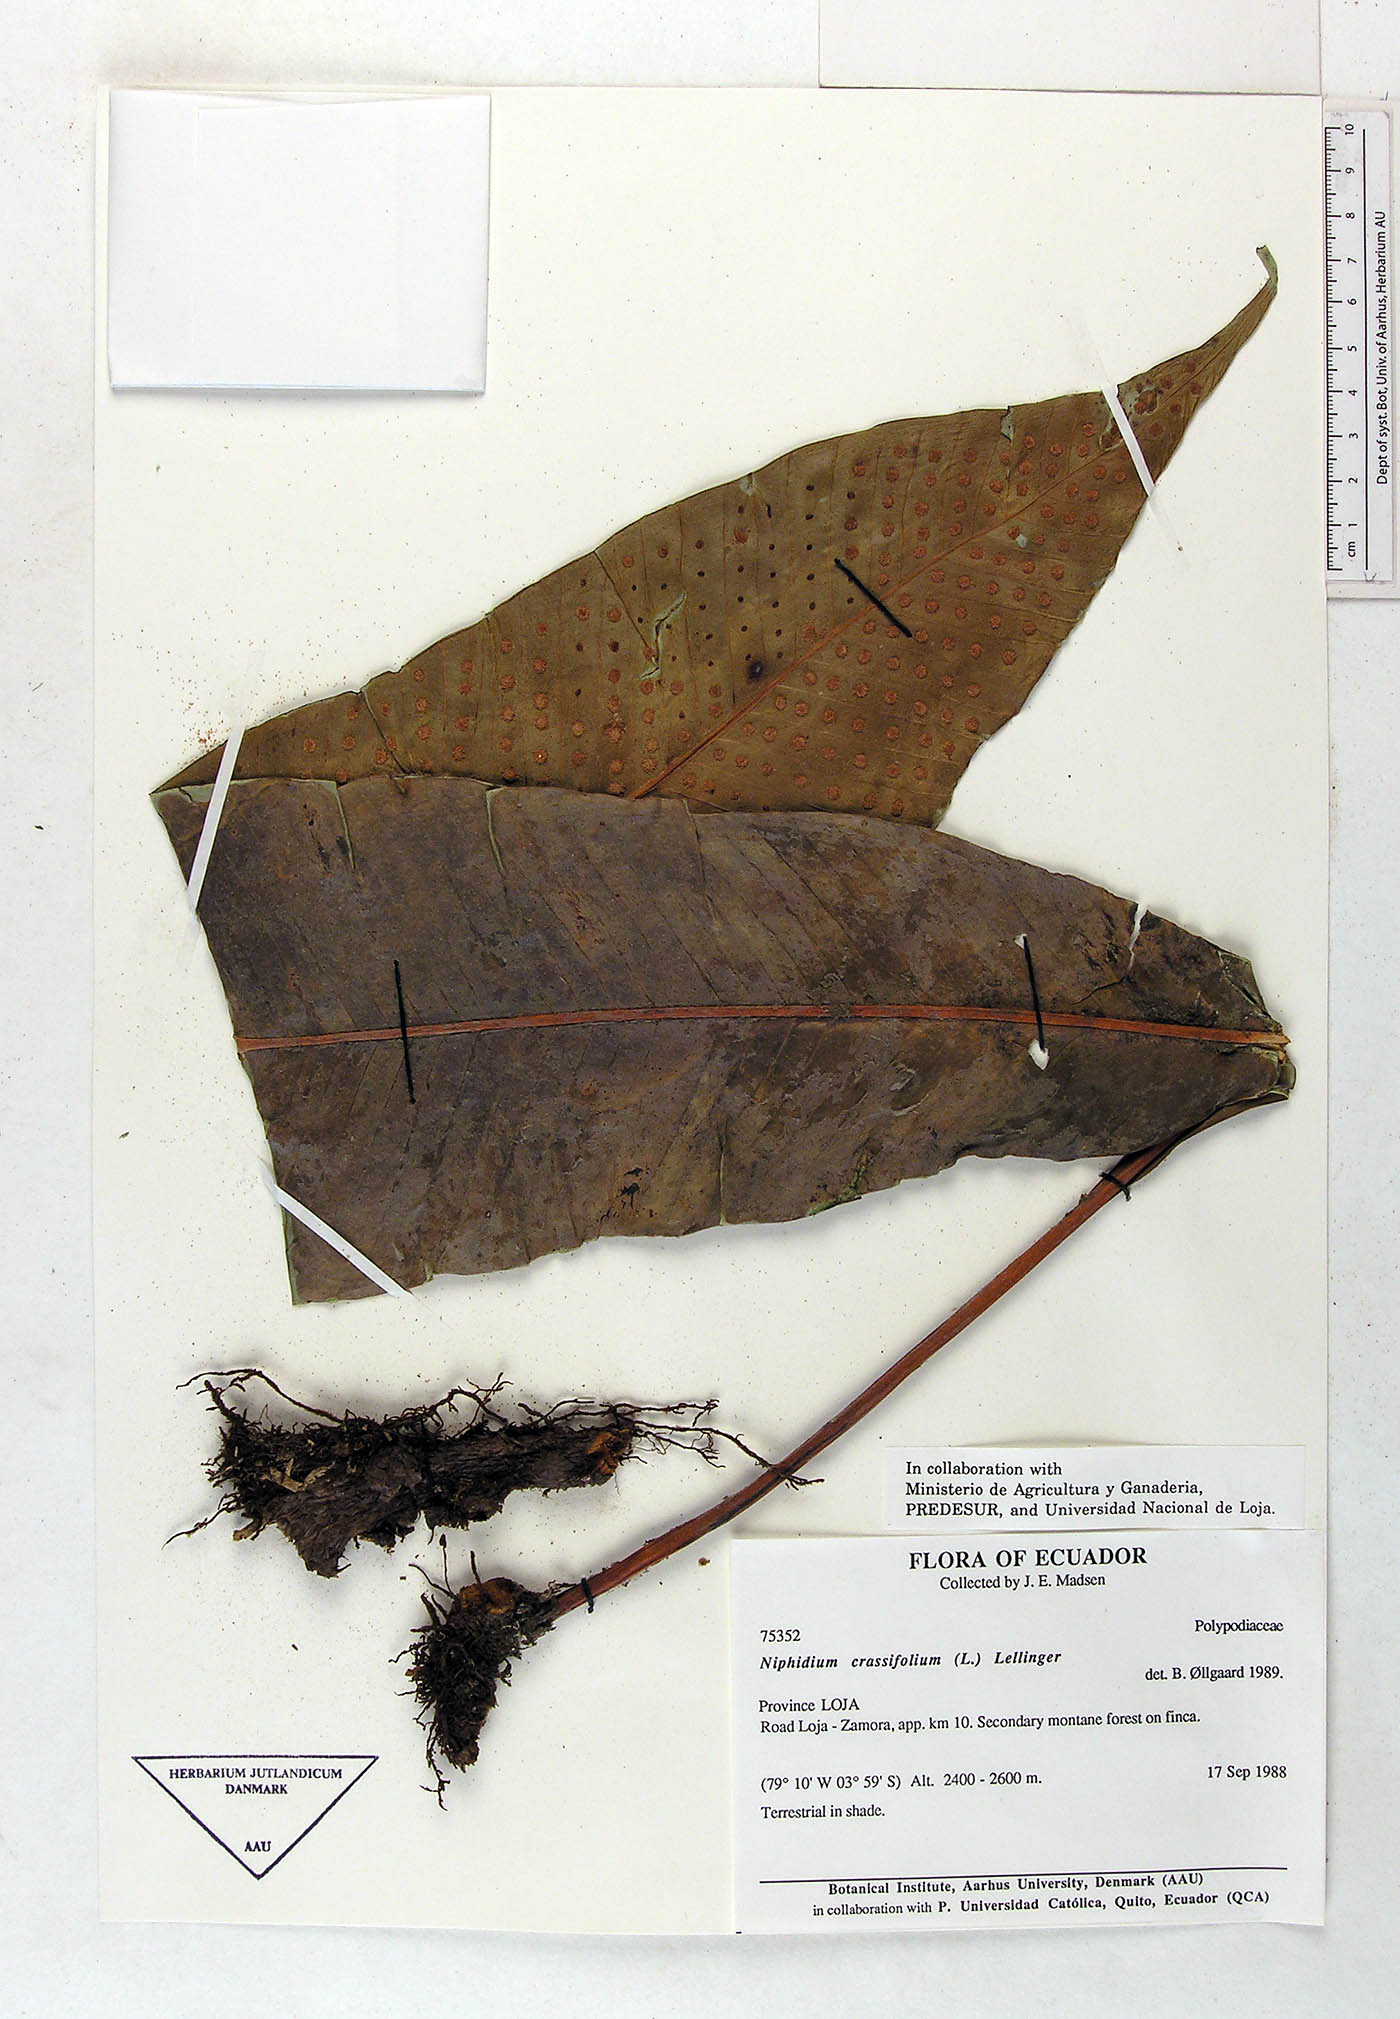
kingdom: Plantae
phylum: Tracheophyta
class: Polypodiopsida
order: Polypodiales
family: Polypodiaceae
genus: Niphidium
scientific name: Niphidium crassifolium
